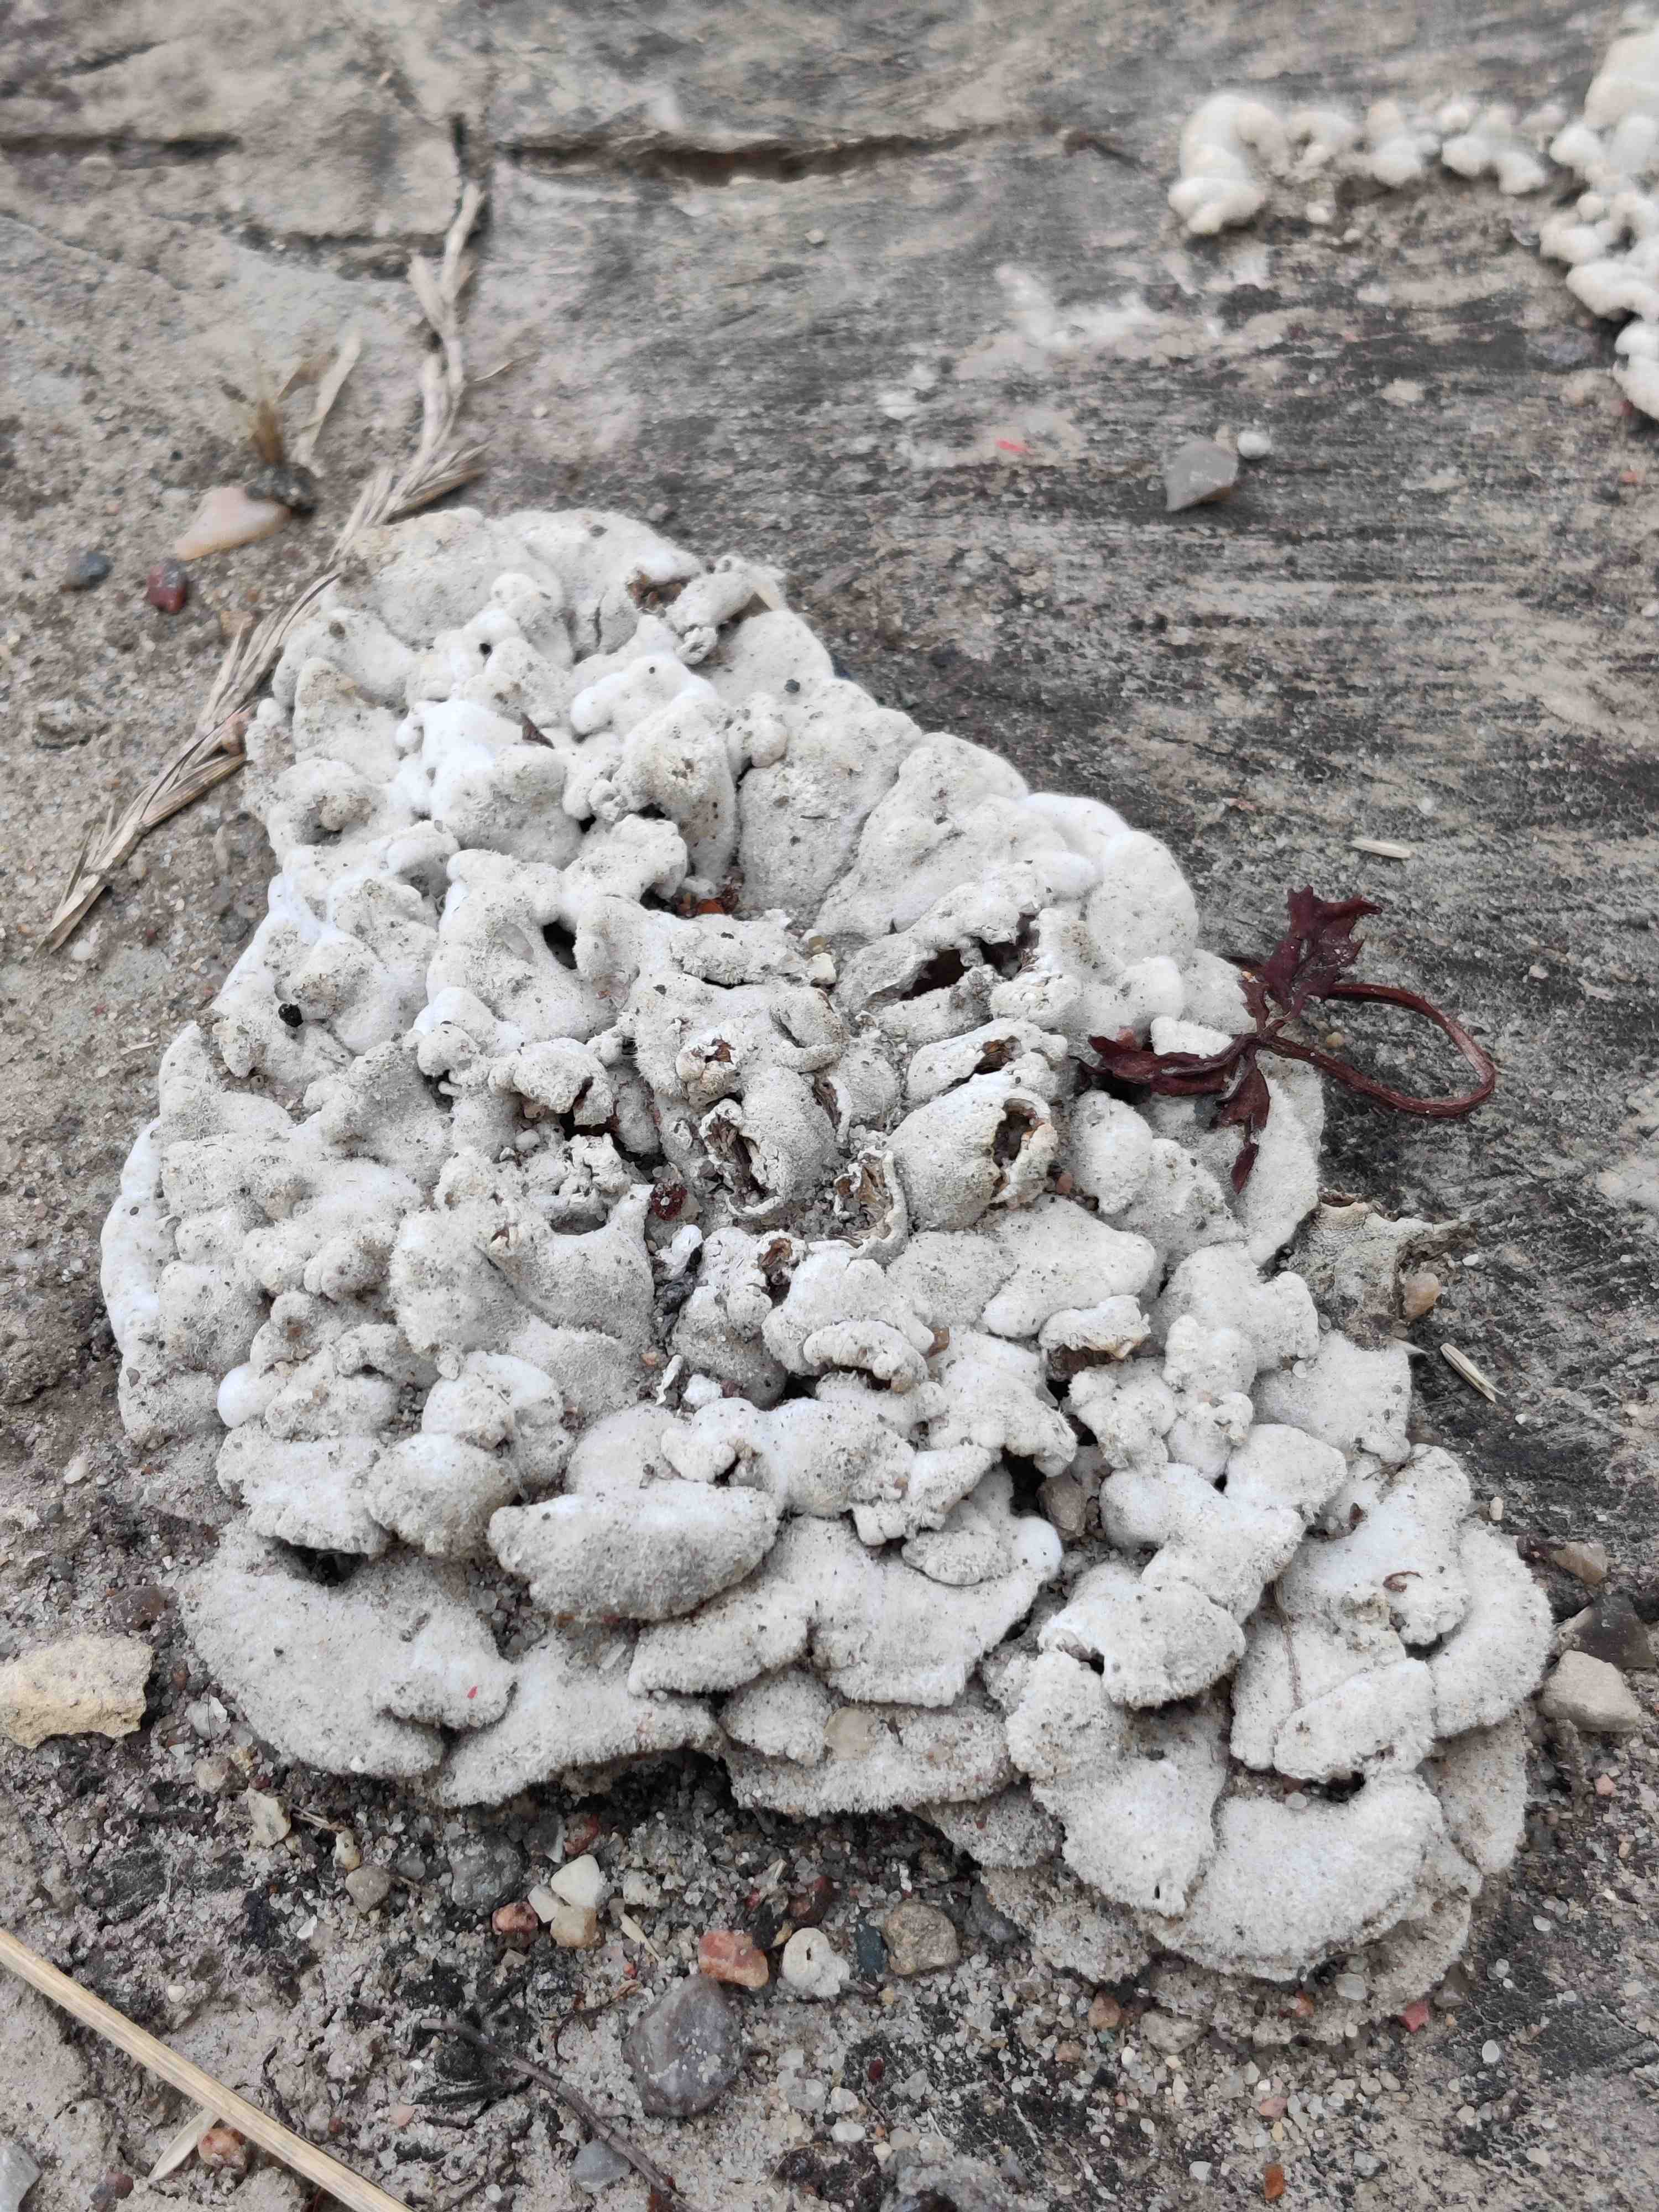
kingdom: Fungi
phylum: Basidiomycota
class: Agaricomycetes
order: Agaricales
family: Schizophyllaceae
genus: Schizophyllum
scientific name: Schizophyllum commune
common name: kløvblad
